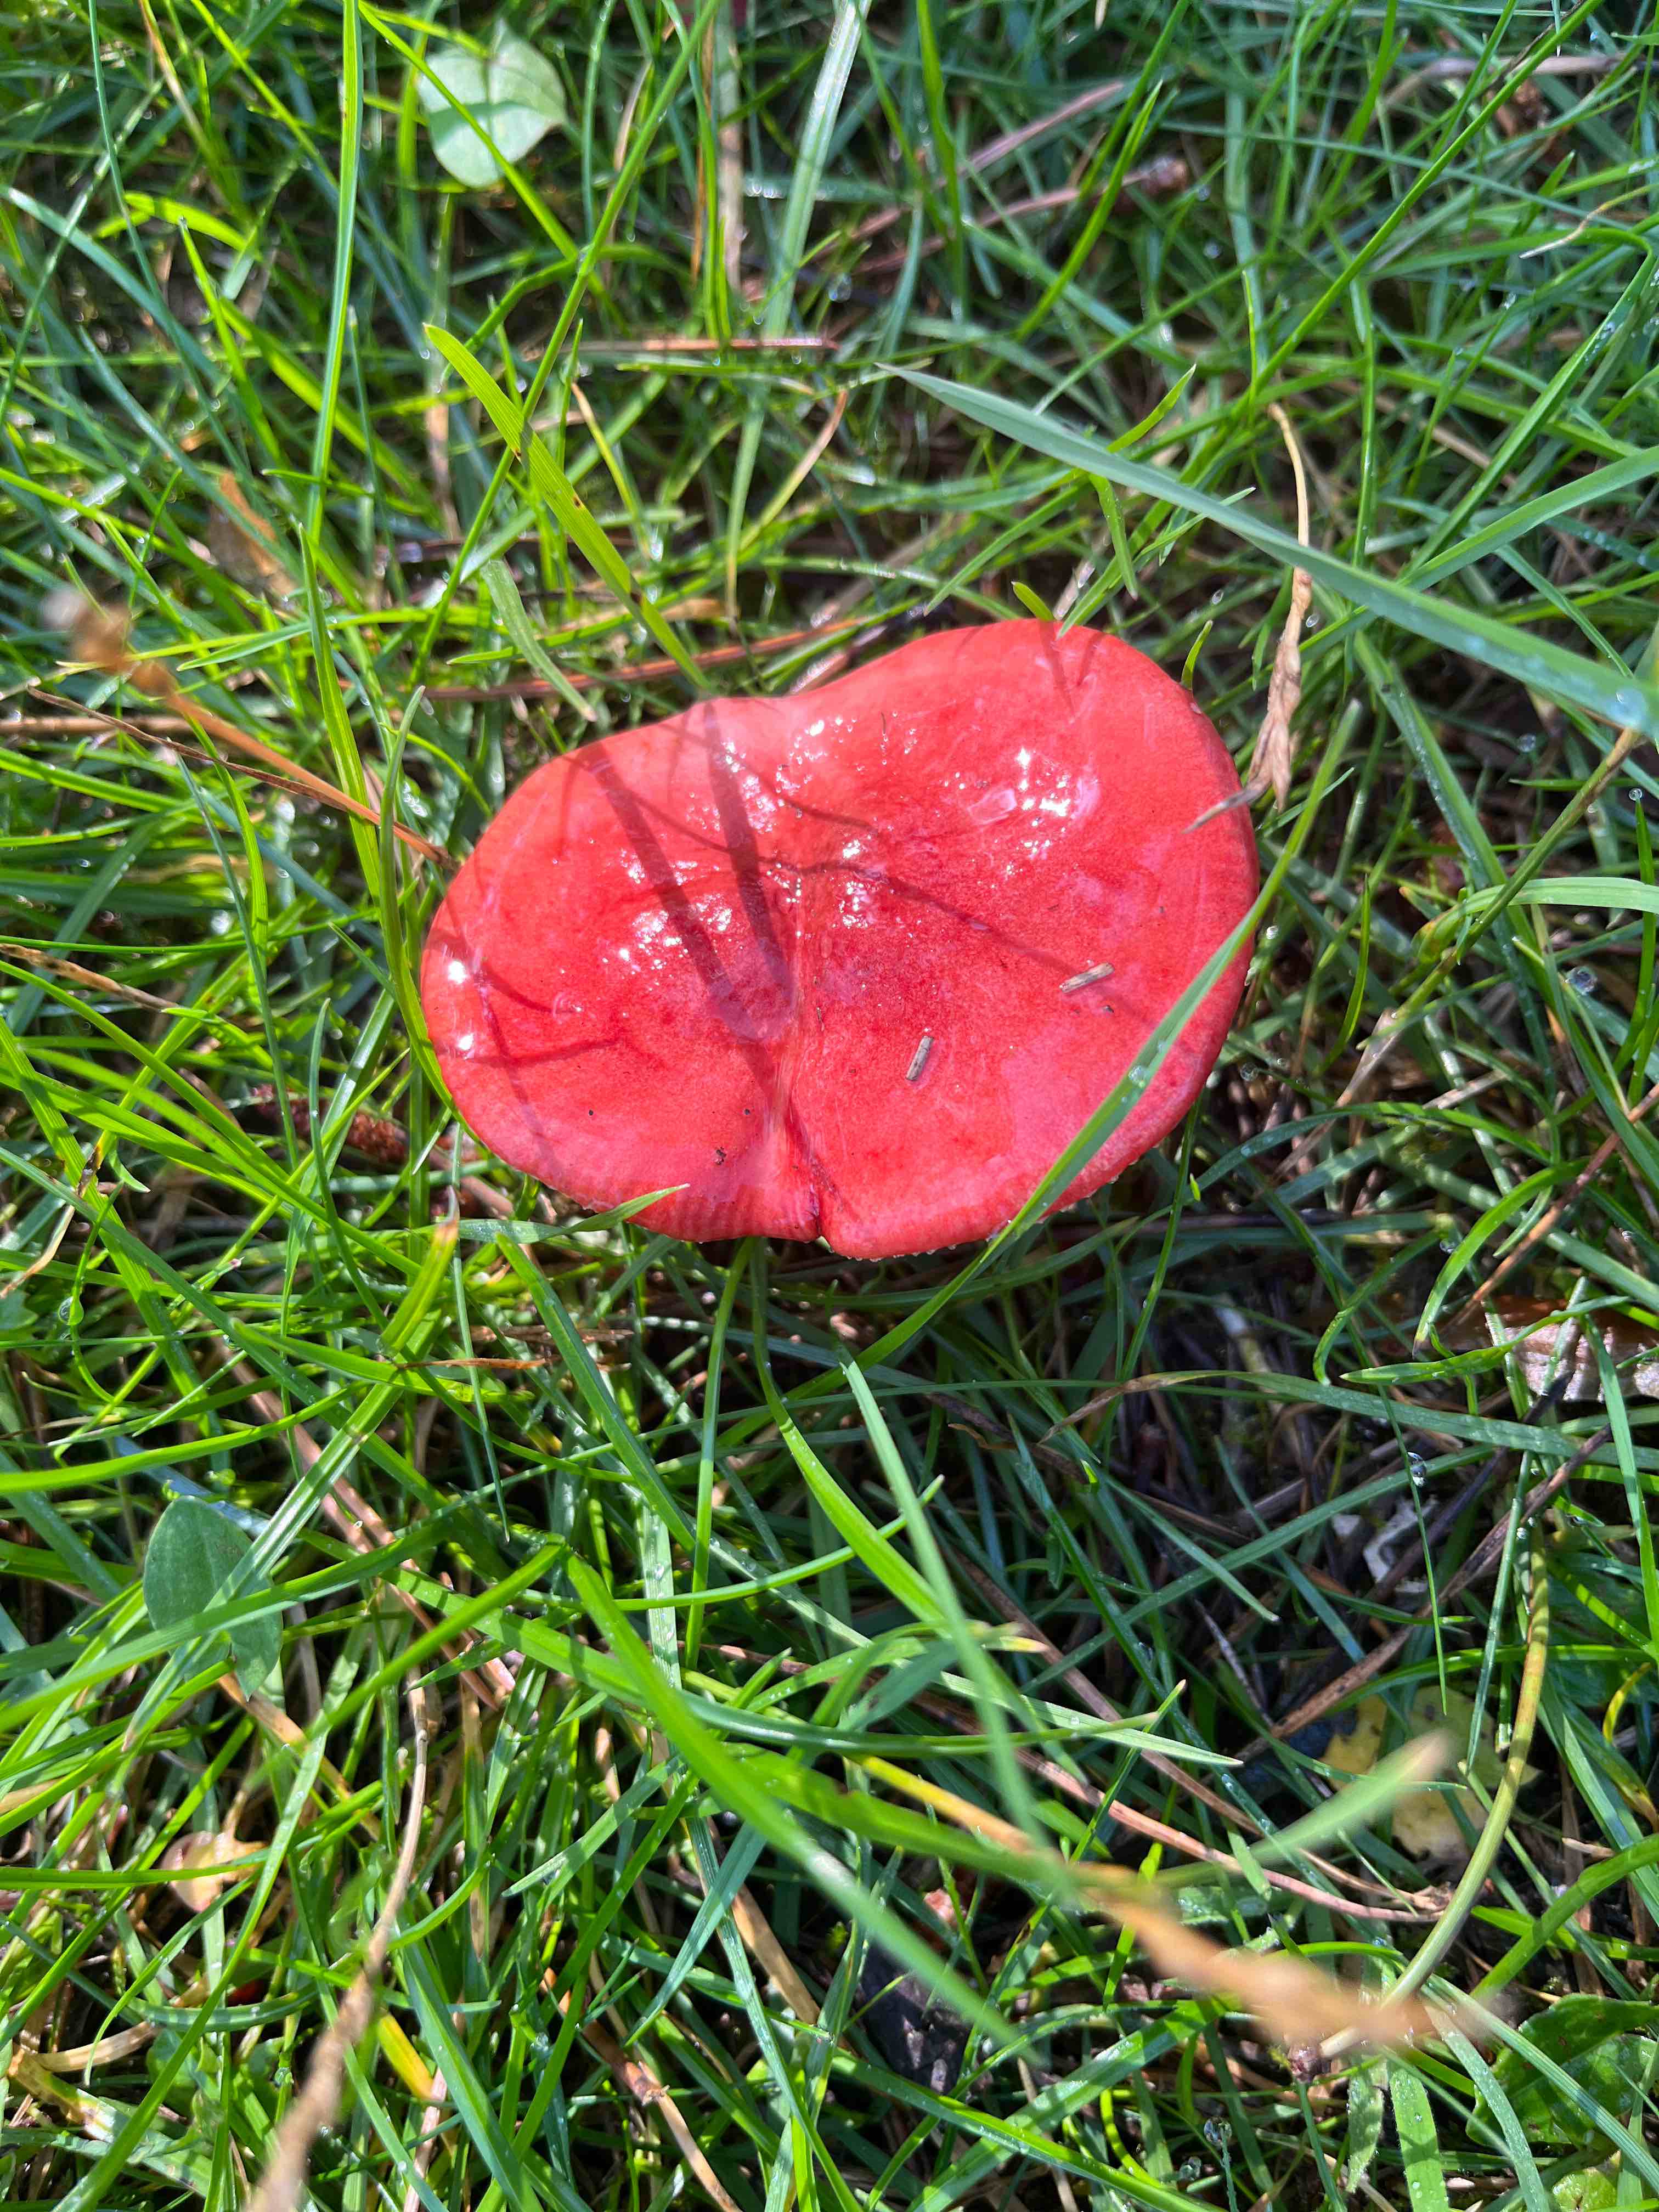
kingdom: Fungi
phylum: Basidiomycota
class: Agaricomycetes
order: Russulales
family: Russulaceae
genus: Russula
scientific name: Russula sanguinea
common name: blodrød skørhat
